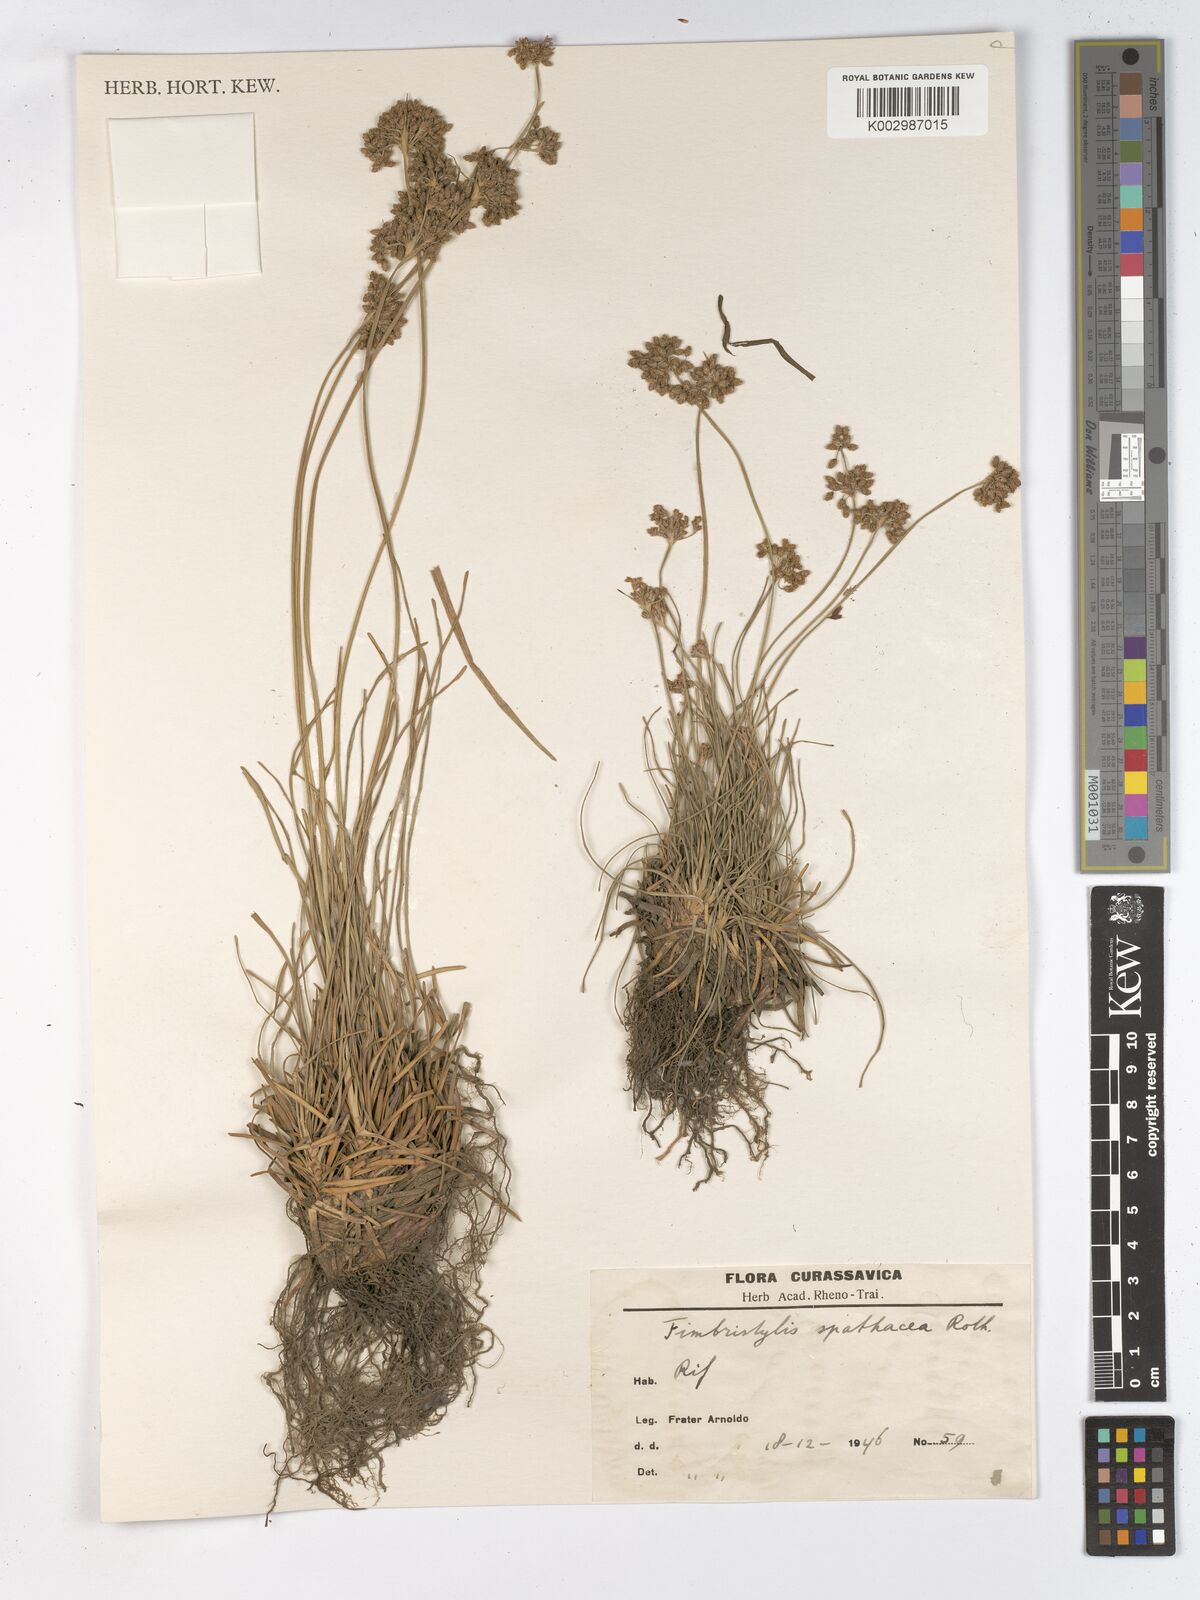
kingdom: Plantae
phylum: Tracheophyta
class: Liliopsida
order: Poales
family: Cyperaceae
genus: Fimbristylis
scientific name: Fimbristylis cymosa
